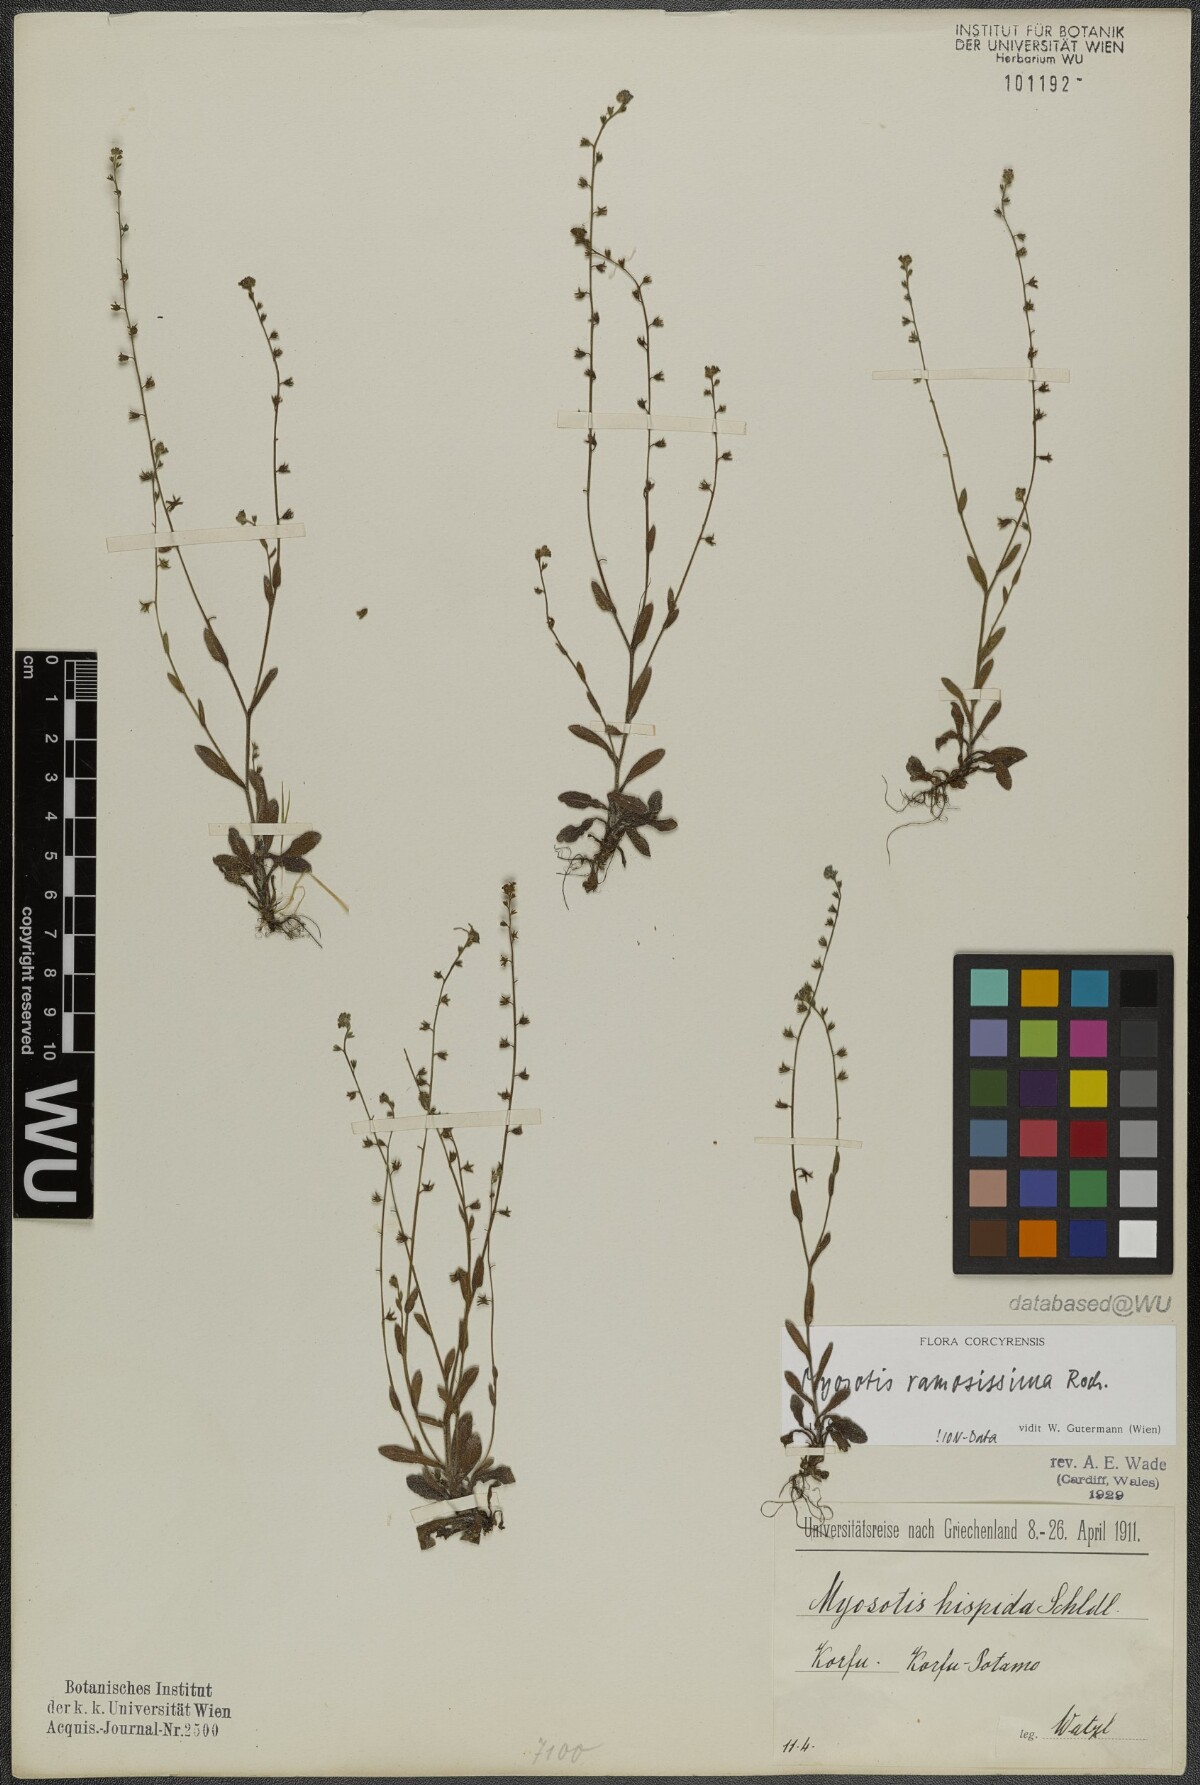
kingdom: Plantae
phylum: Tracheophyta
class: Magnoliopsida
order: Boraginales
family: Boraginaceae
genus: Myosotis
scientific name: Myosotis ramosissima
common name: Early forget-me-not
